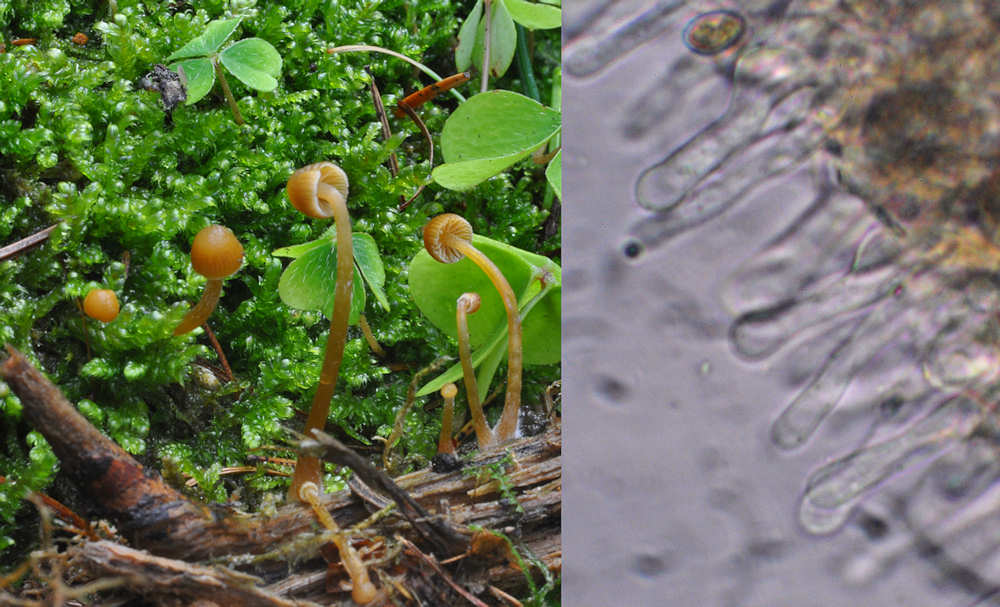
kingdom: Fungi
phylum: Basidiomycota
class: Agaricomycetes
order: Agaricales
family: Hymenogastraceae
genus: Galerina
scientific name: Galerina hypnorum
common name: mos-hjelmhat
